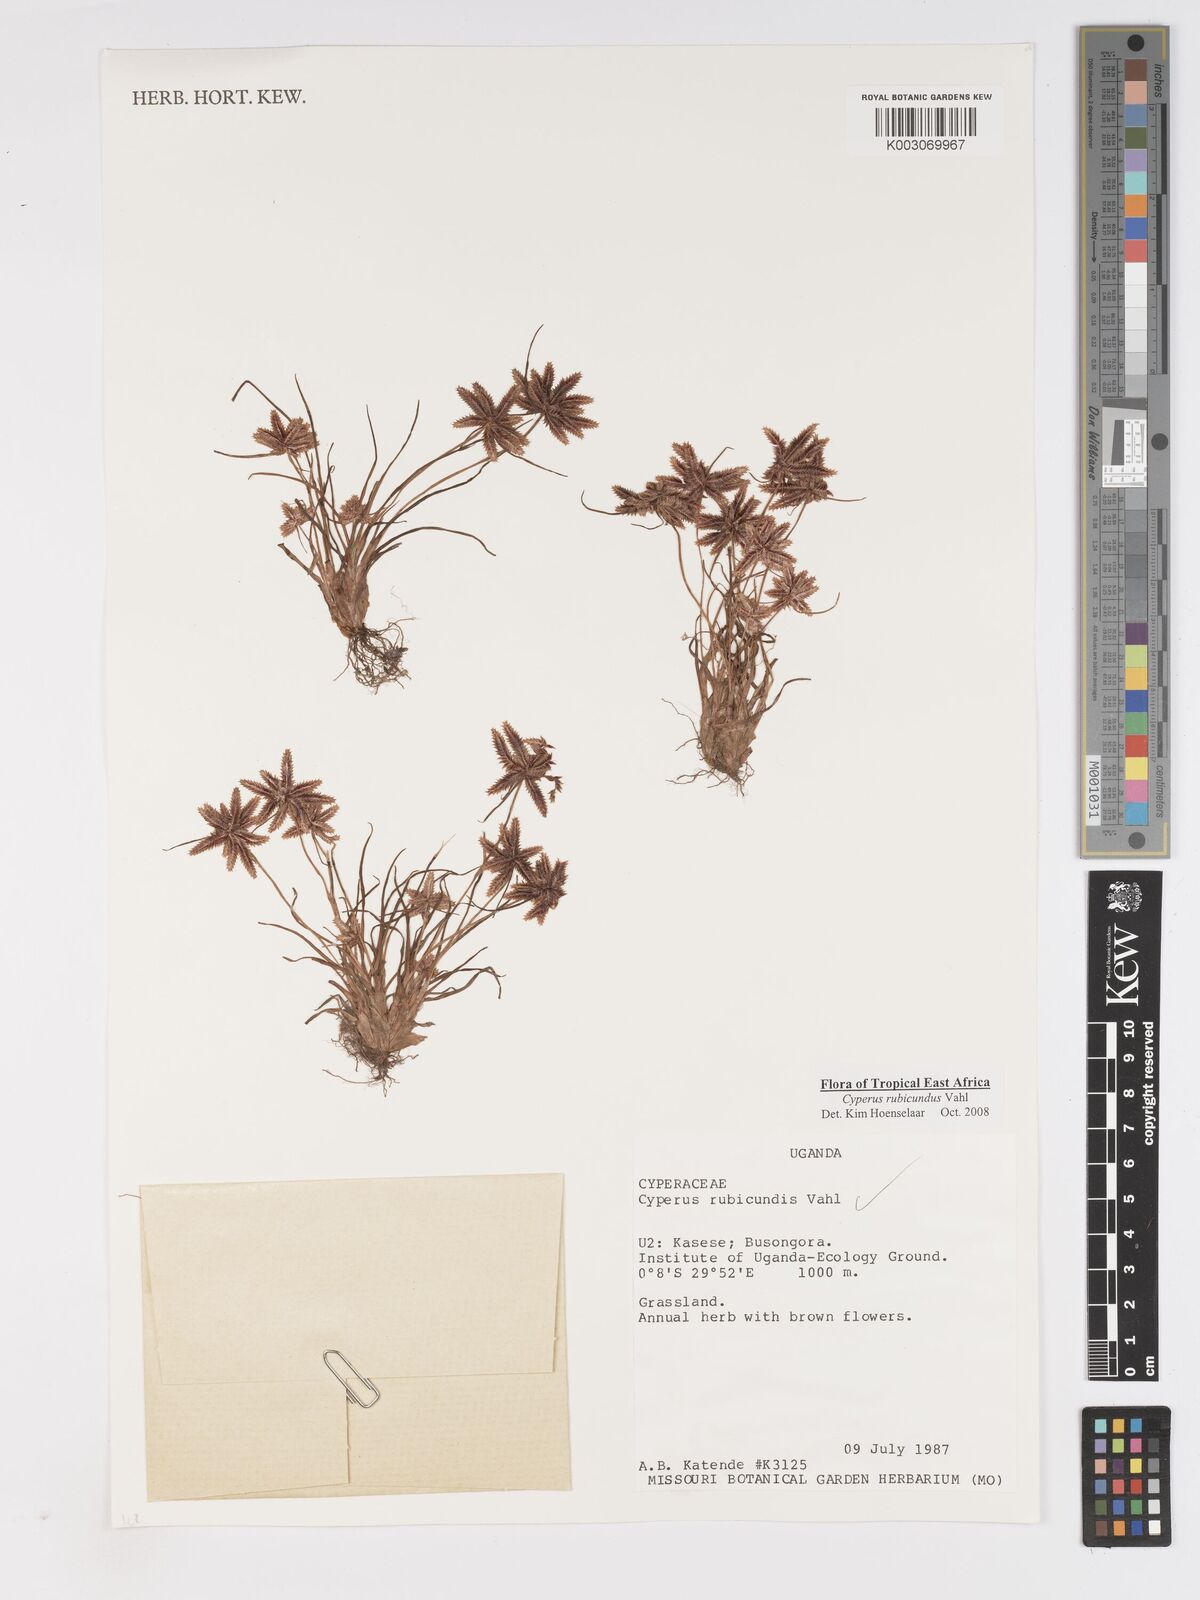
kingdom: Plantae
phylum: Tracheophyta
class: Liliopsida
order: Poales
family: Cyperaceae
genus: Cyperus
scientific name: Cyperus rubicundus
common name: Coco-grass
